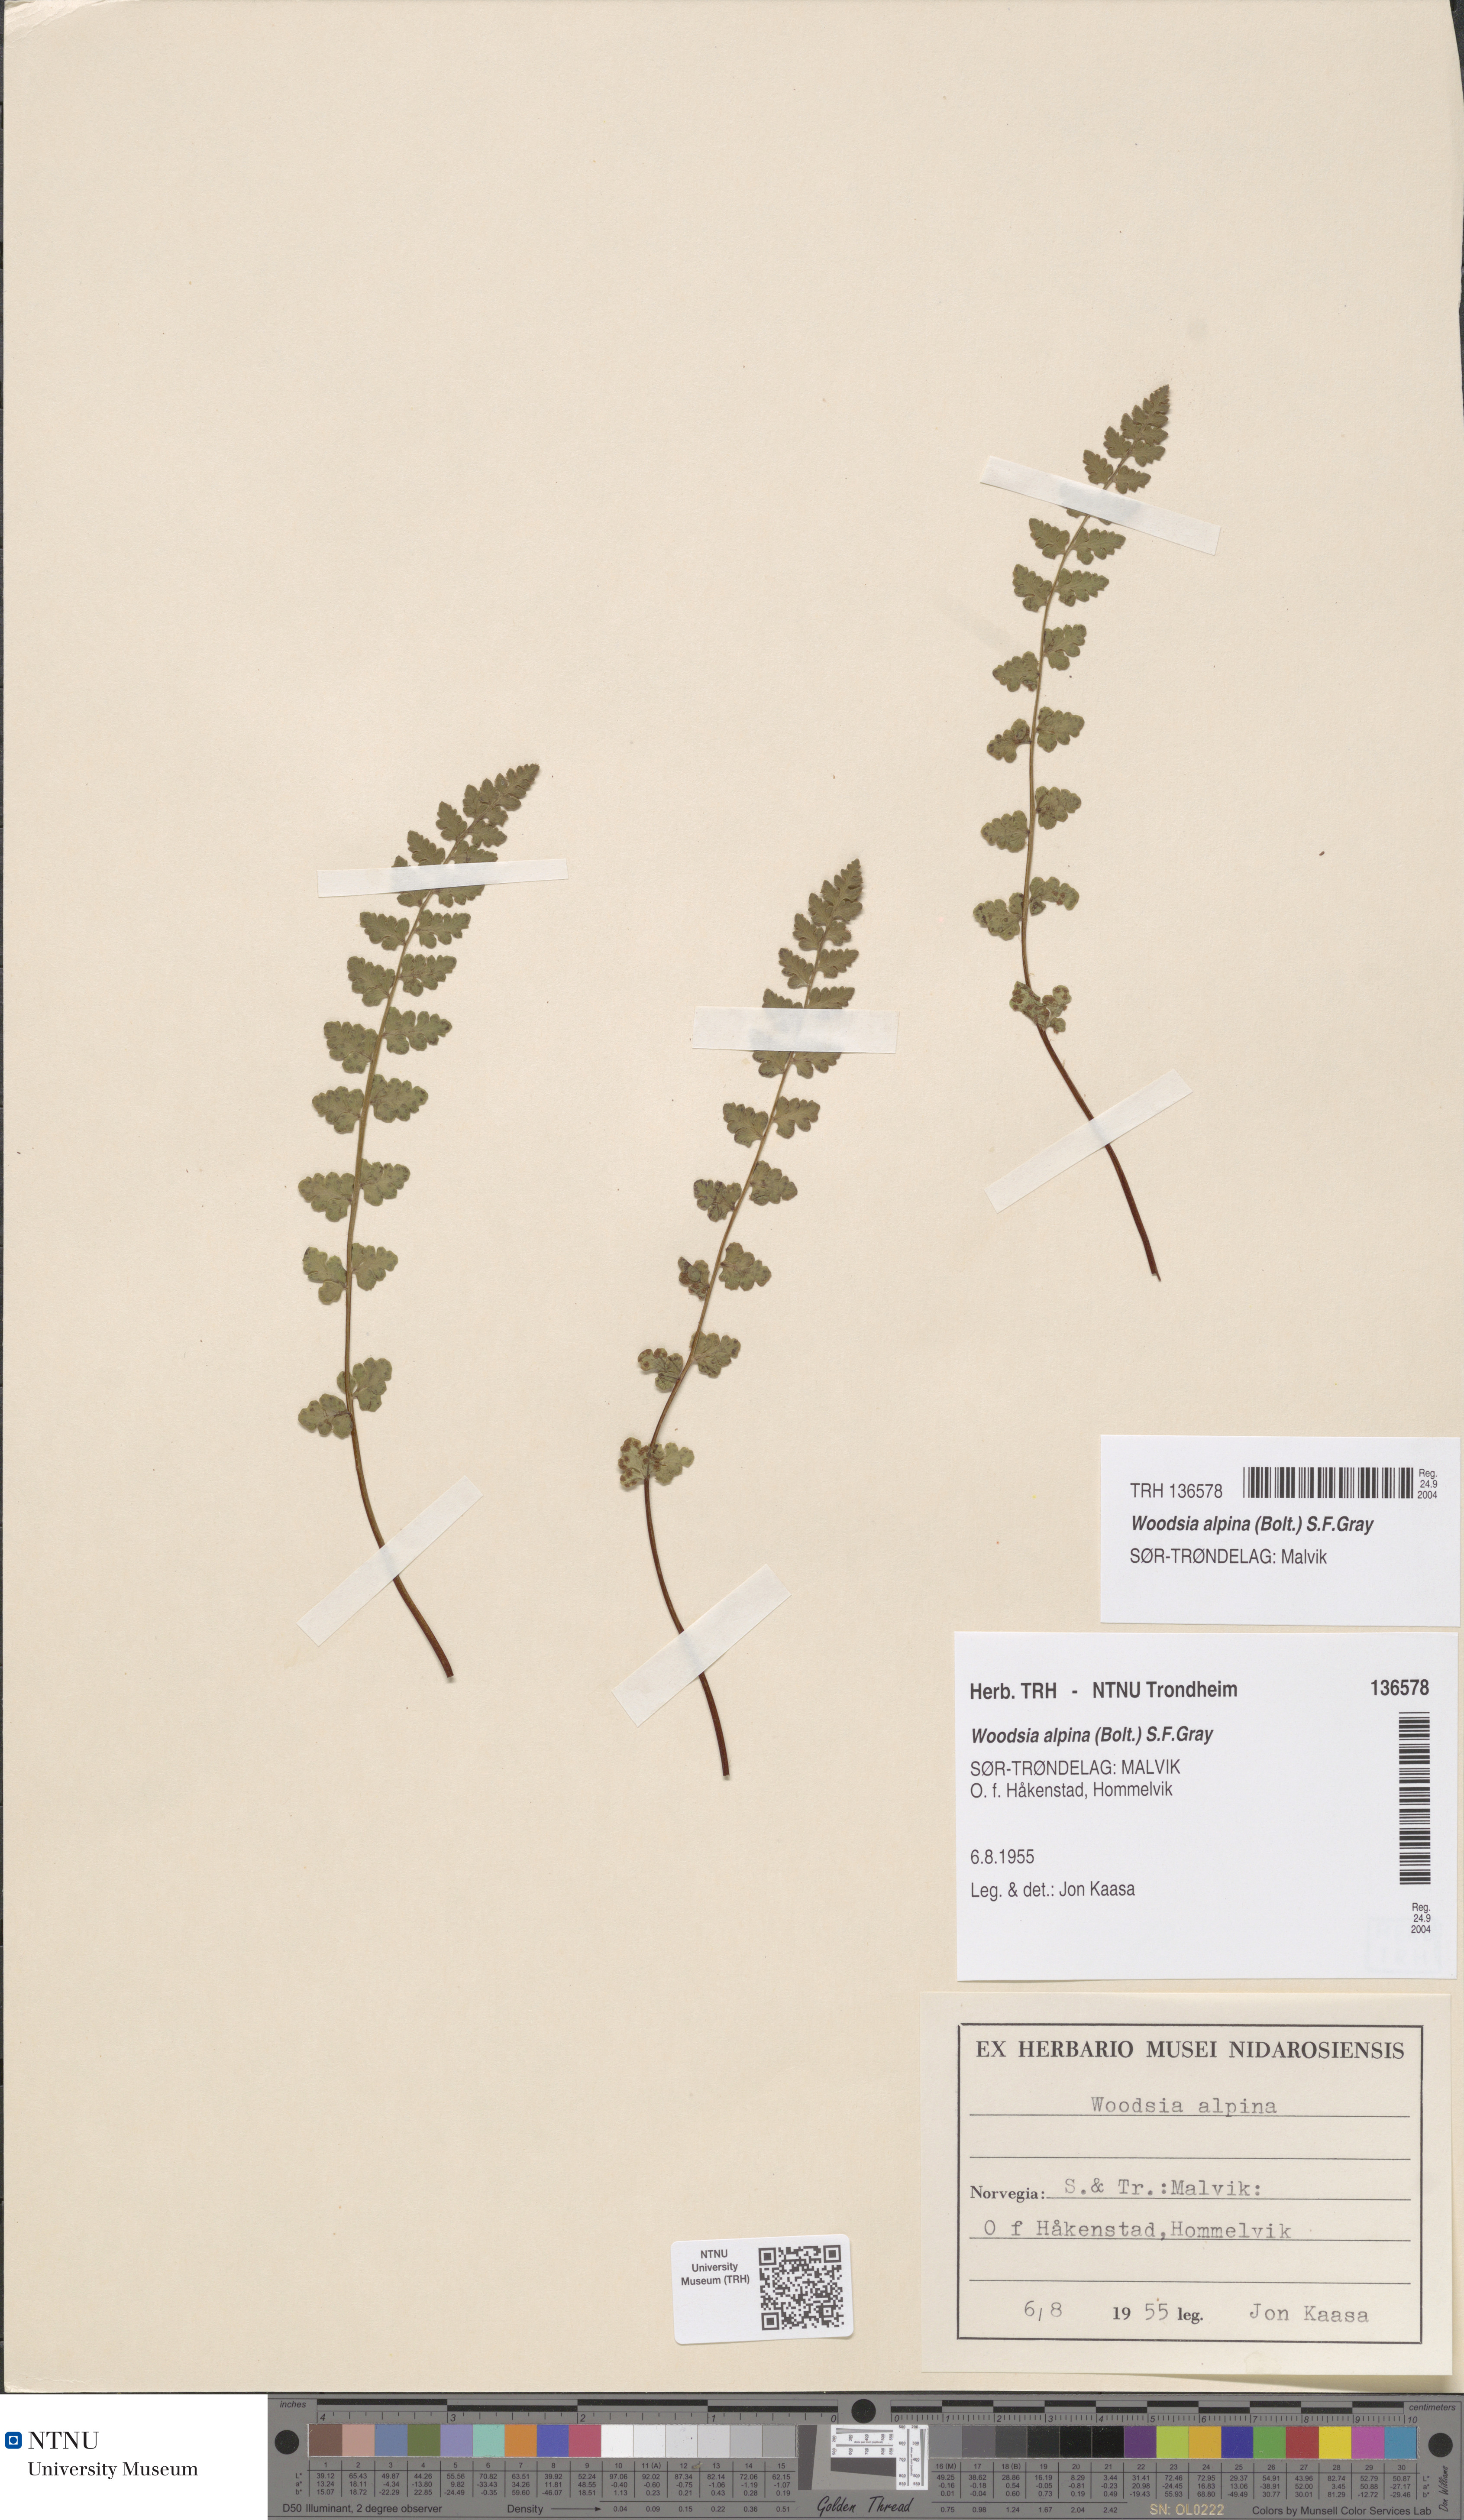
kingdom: Plantae
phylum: Tracheophyta
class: Polypodiopsida
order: Polypodiales
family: Woodsiaceae
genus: Woodsia
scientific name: Woodsia alpina
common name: Alpine woodsia
